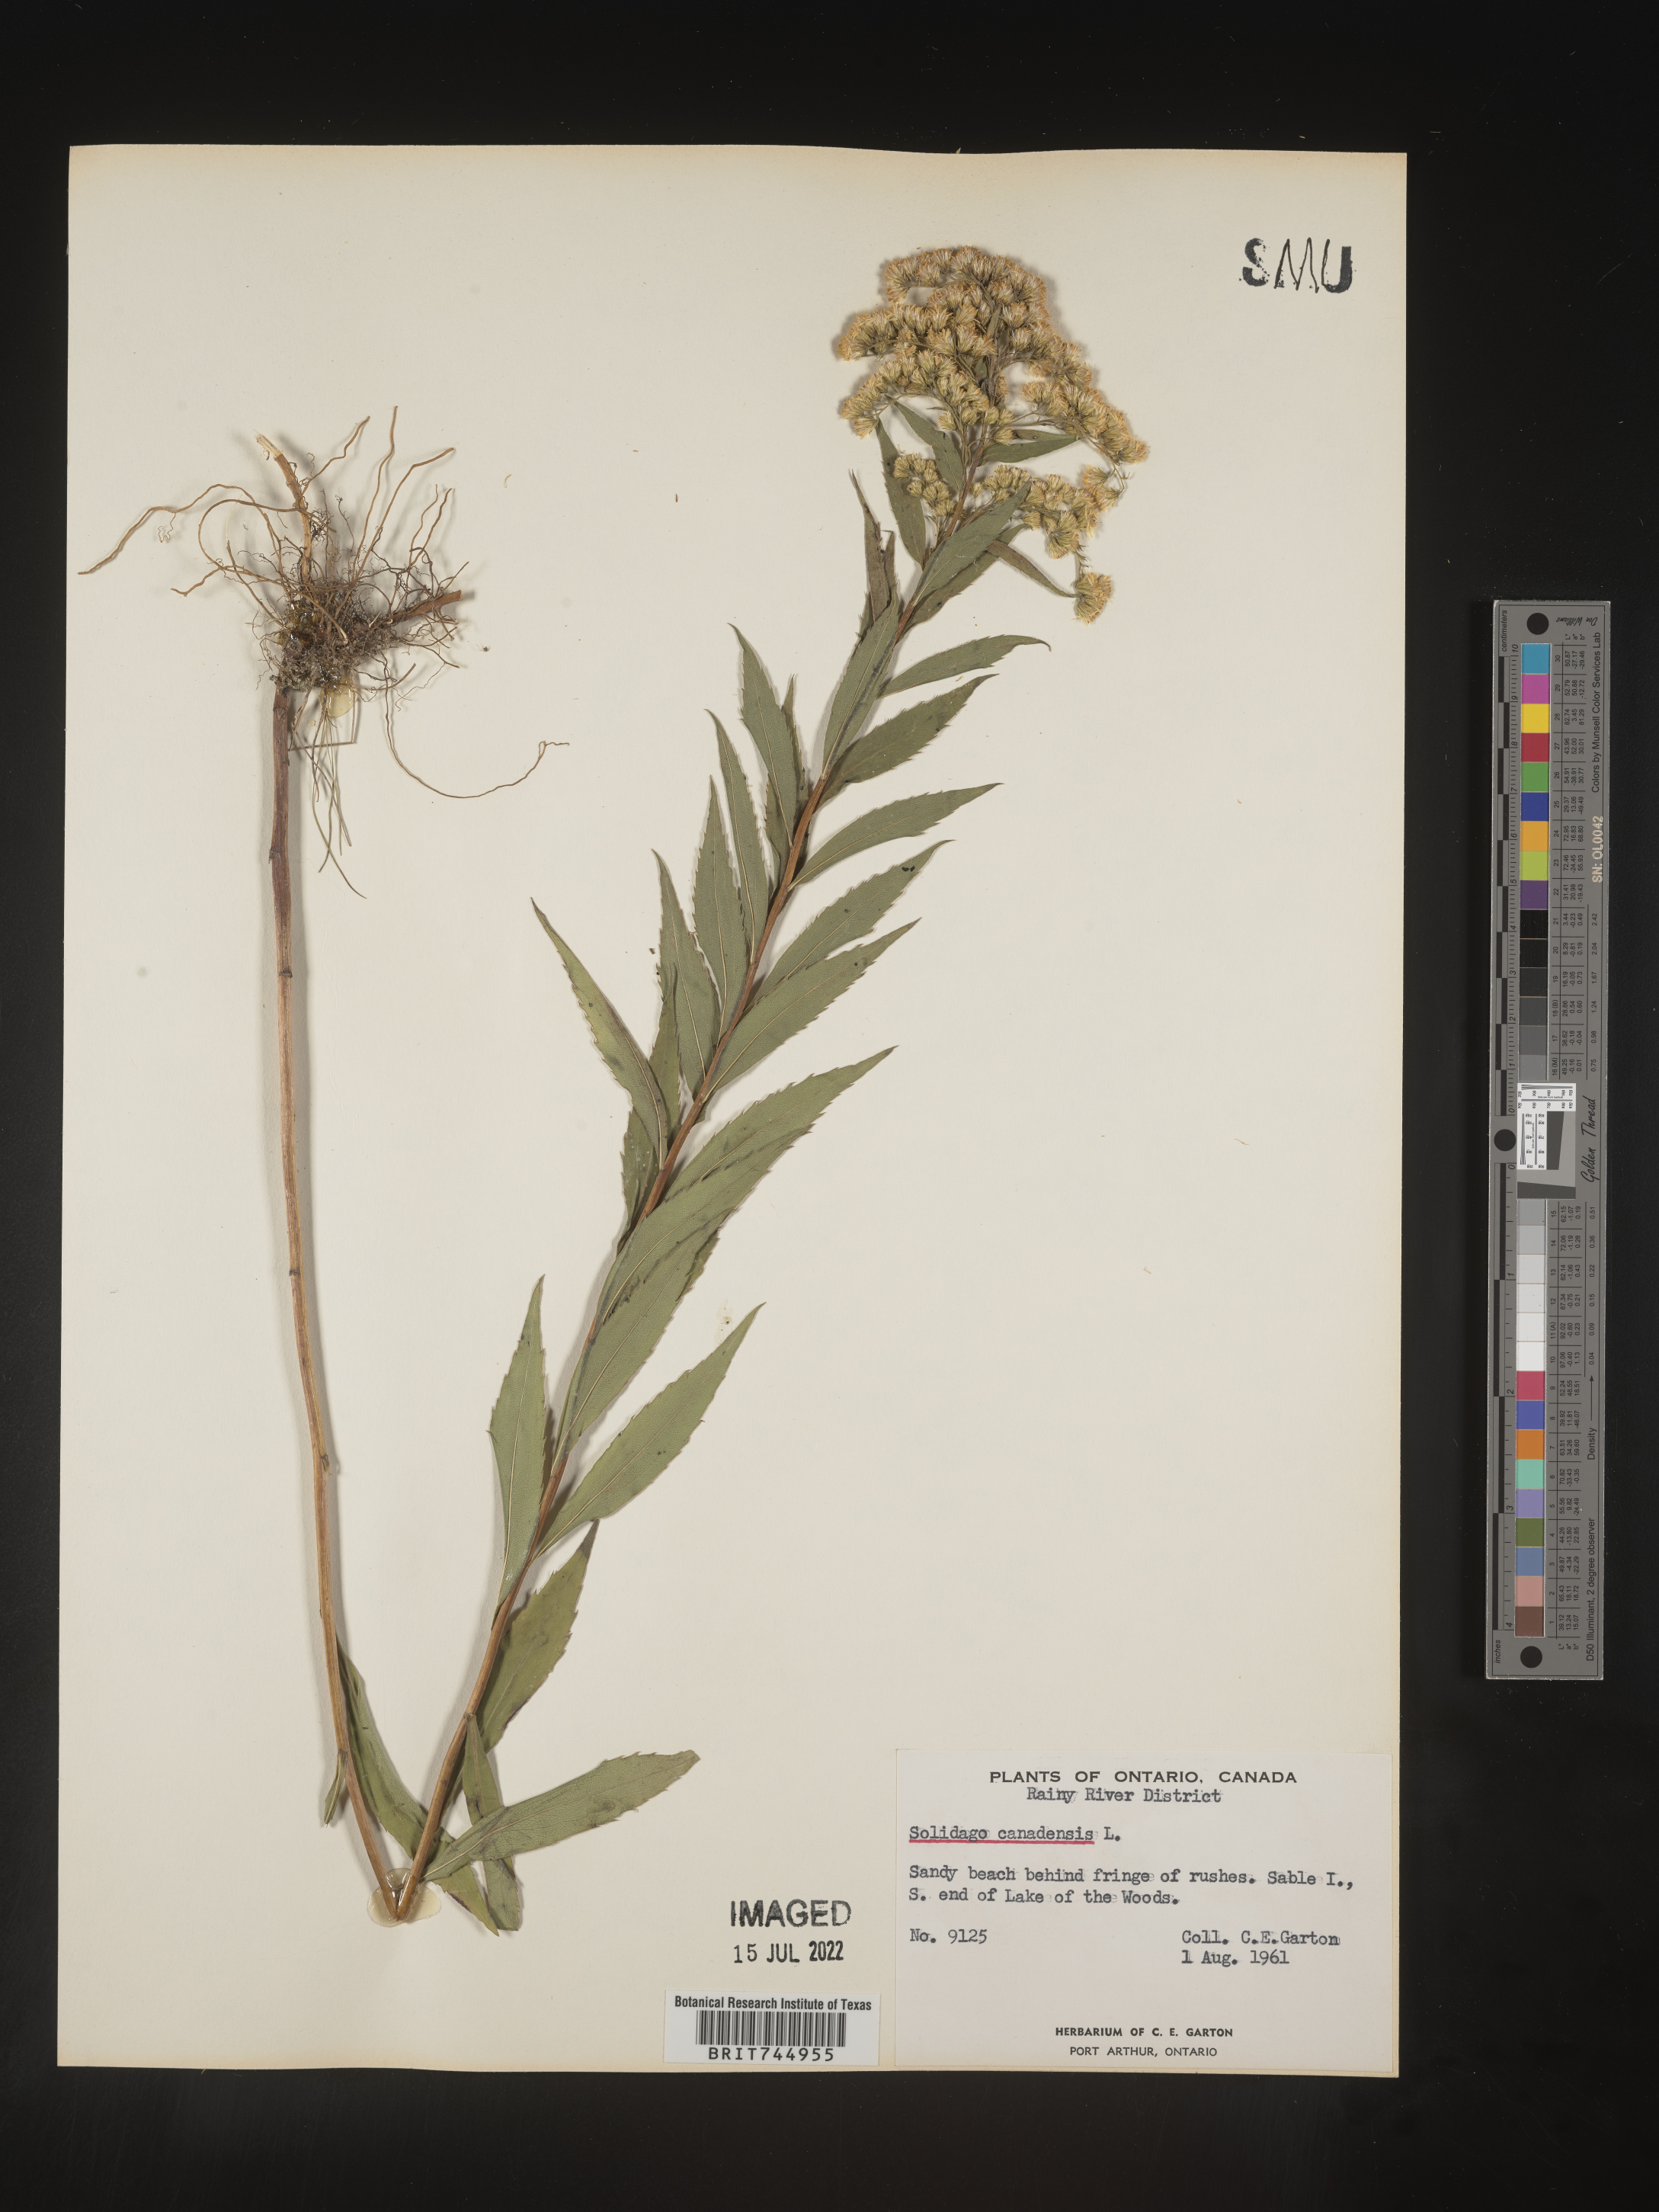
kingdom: Plantae
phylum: Tracheophyta
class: Magnoliopsida
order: Asterales
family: Asteraceae
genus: Solidago
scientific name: Solidago canadensis
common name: Canada goldenrod
